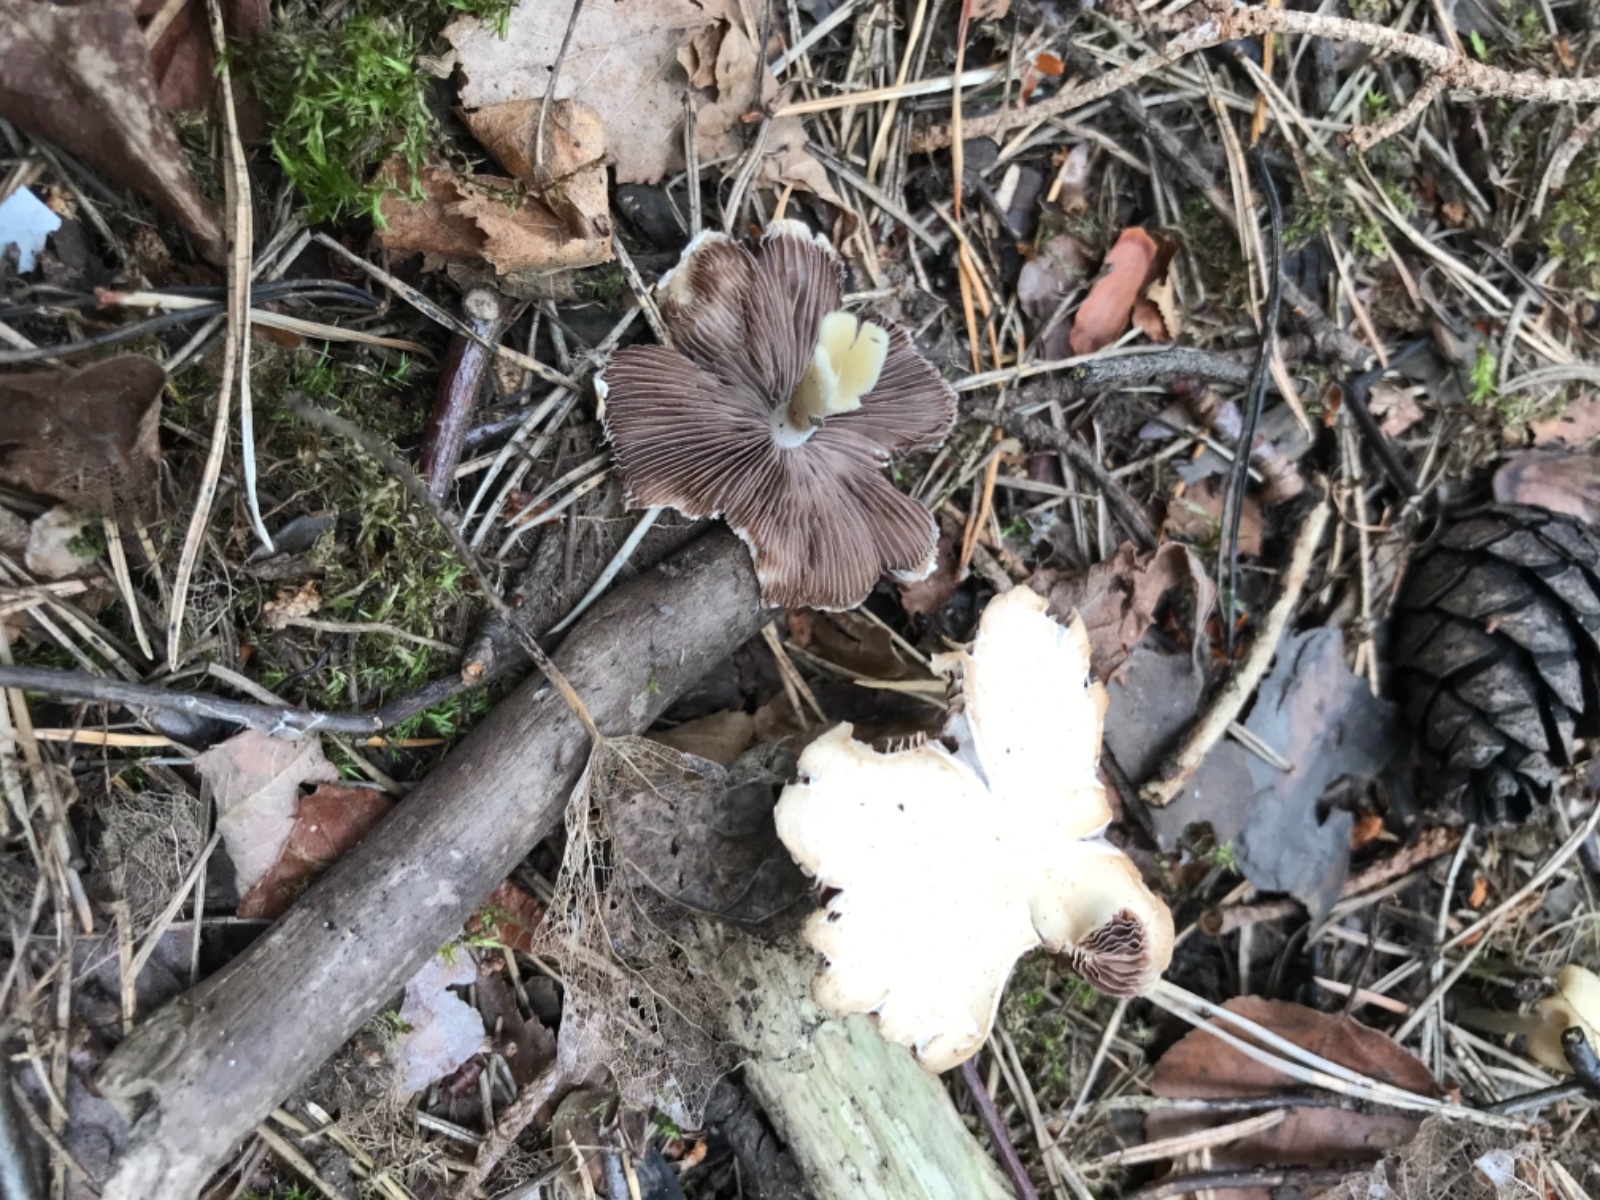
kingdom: Fungi
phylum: Basidiomycota
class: Agaricomycetes
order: Agaricales
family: Psathyrellaceae
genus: Candolleomyces
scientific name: Candolleomyces candolleanus
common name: Candolles mørkhat
